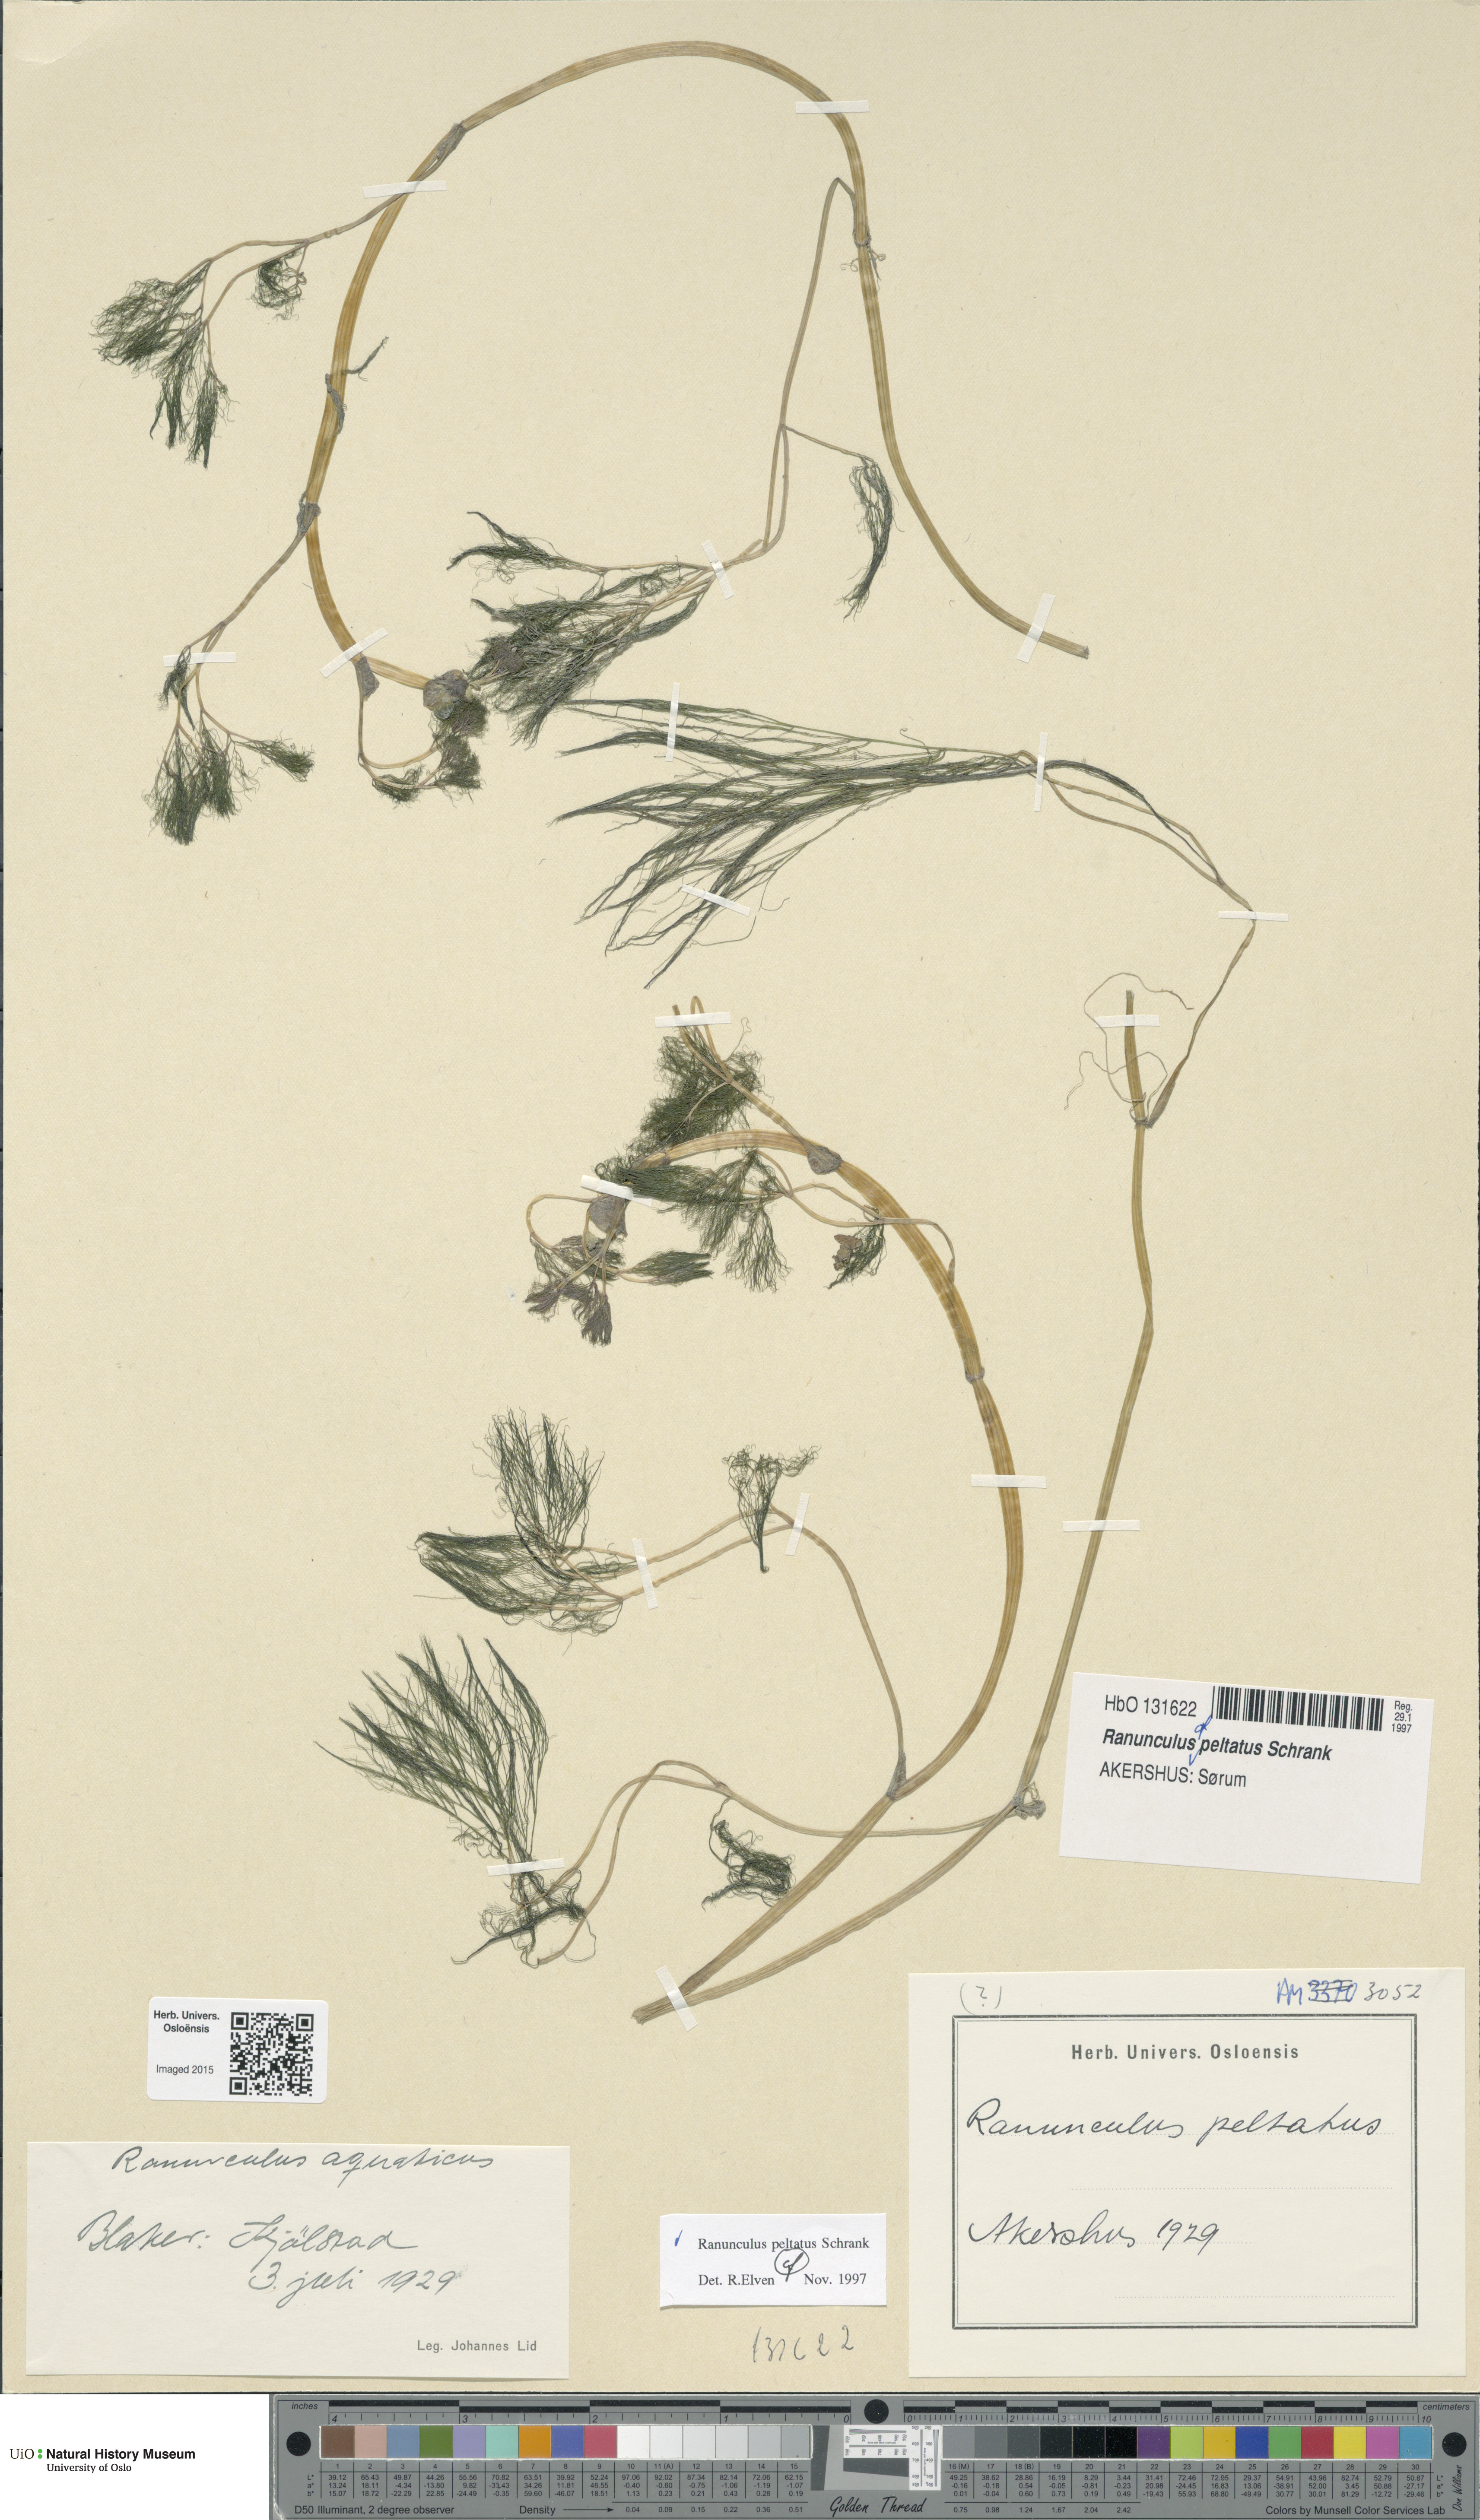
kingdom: Plantae
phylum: Tracheophyta
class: Magnoliopsida
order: Ranunculales
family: Ranunculaceae
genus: Ranunculus
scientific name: Ranunculus peltatus
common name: Pond water-crowfoot
